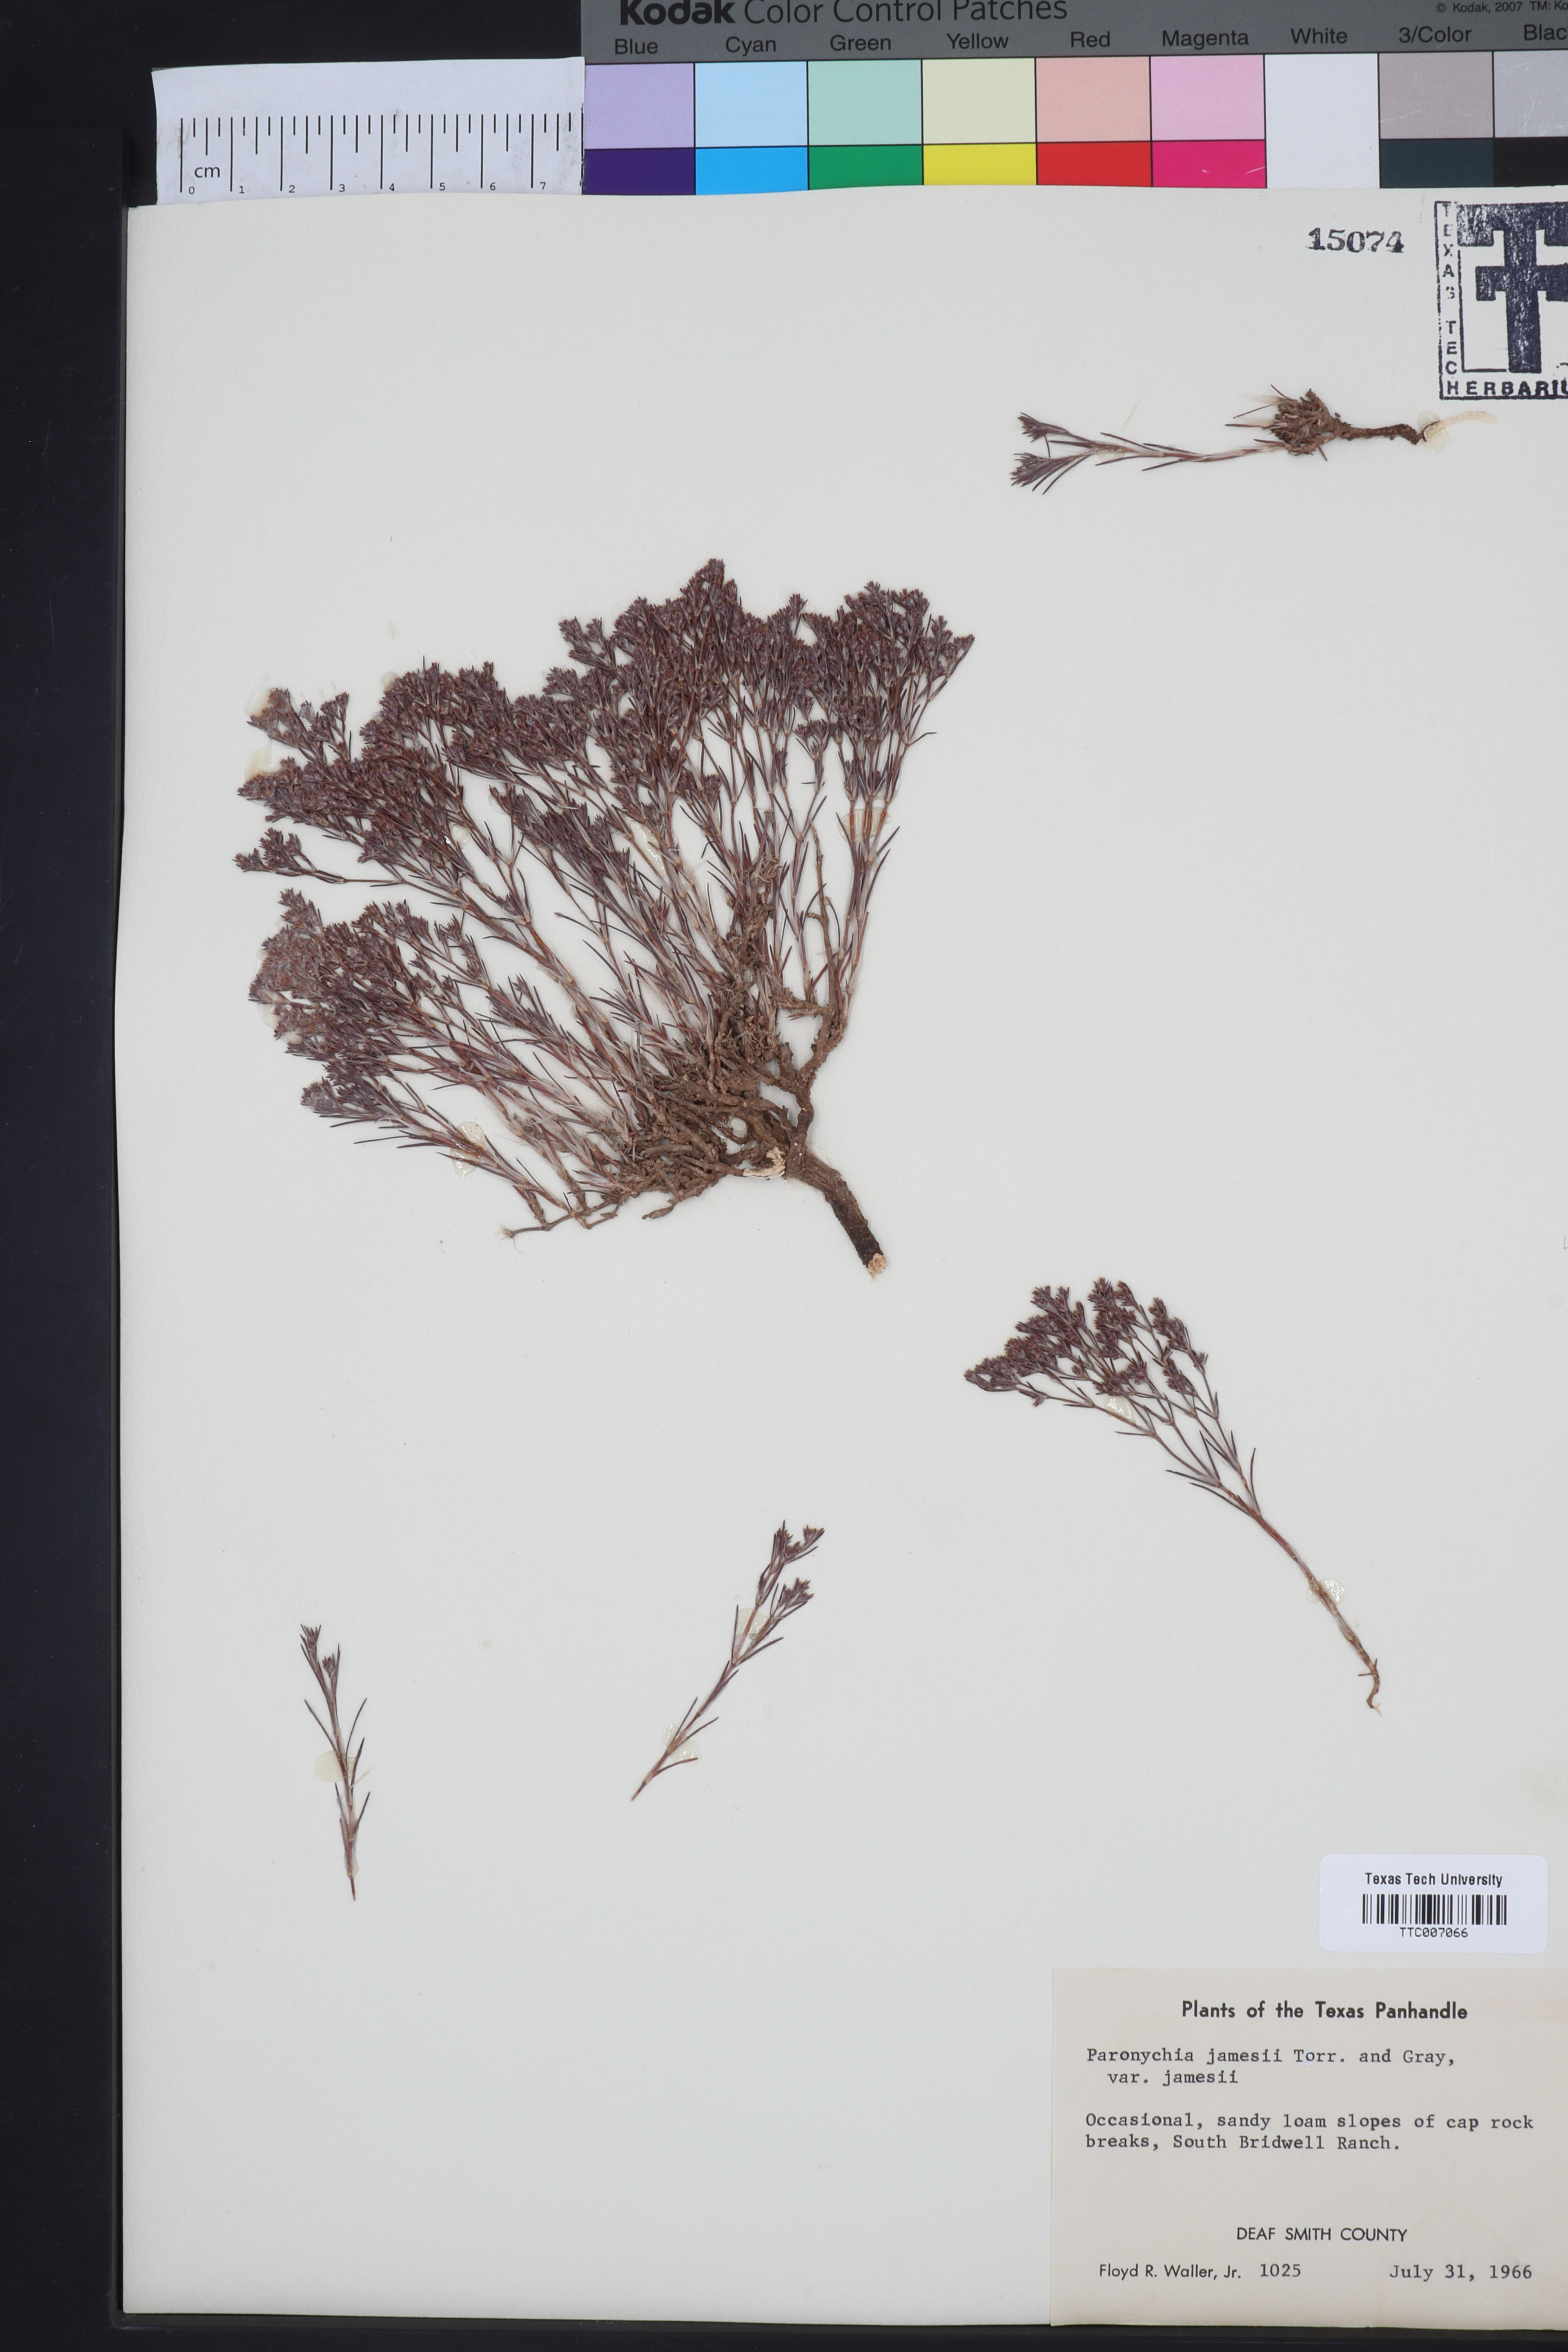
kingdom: Plantae
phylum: Tracheophyta
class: Magnoliopsida
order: Caryophyllales
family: Caryophyllaceae
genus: Paronychia
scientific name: Paronychia jamesii
